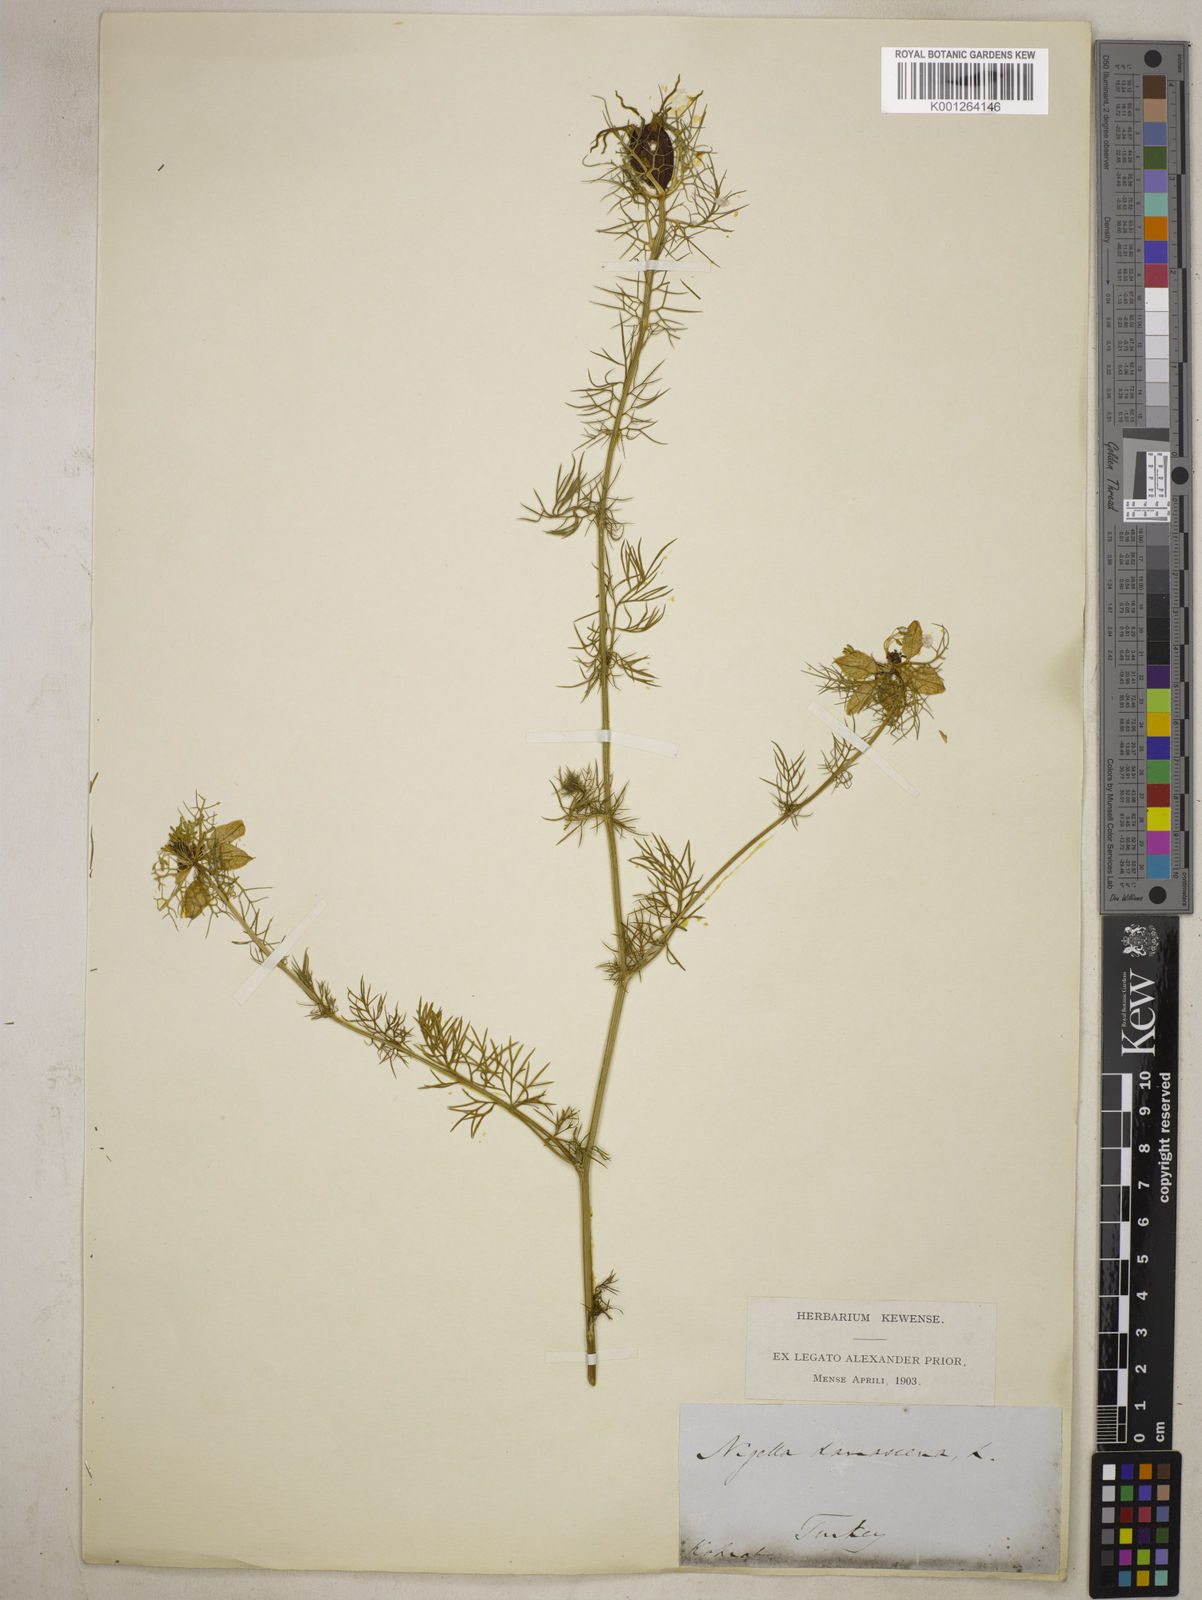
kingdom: Plantae
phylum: Tracheophyta
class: Magnoliopsida
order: Ranunculales
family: Ranunculaceae
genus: Nigella
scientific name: Nigella damascena
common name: Love-in-a-mist
